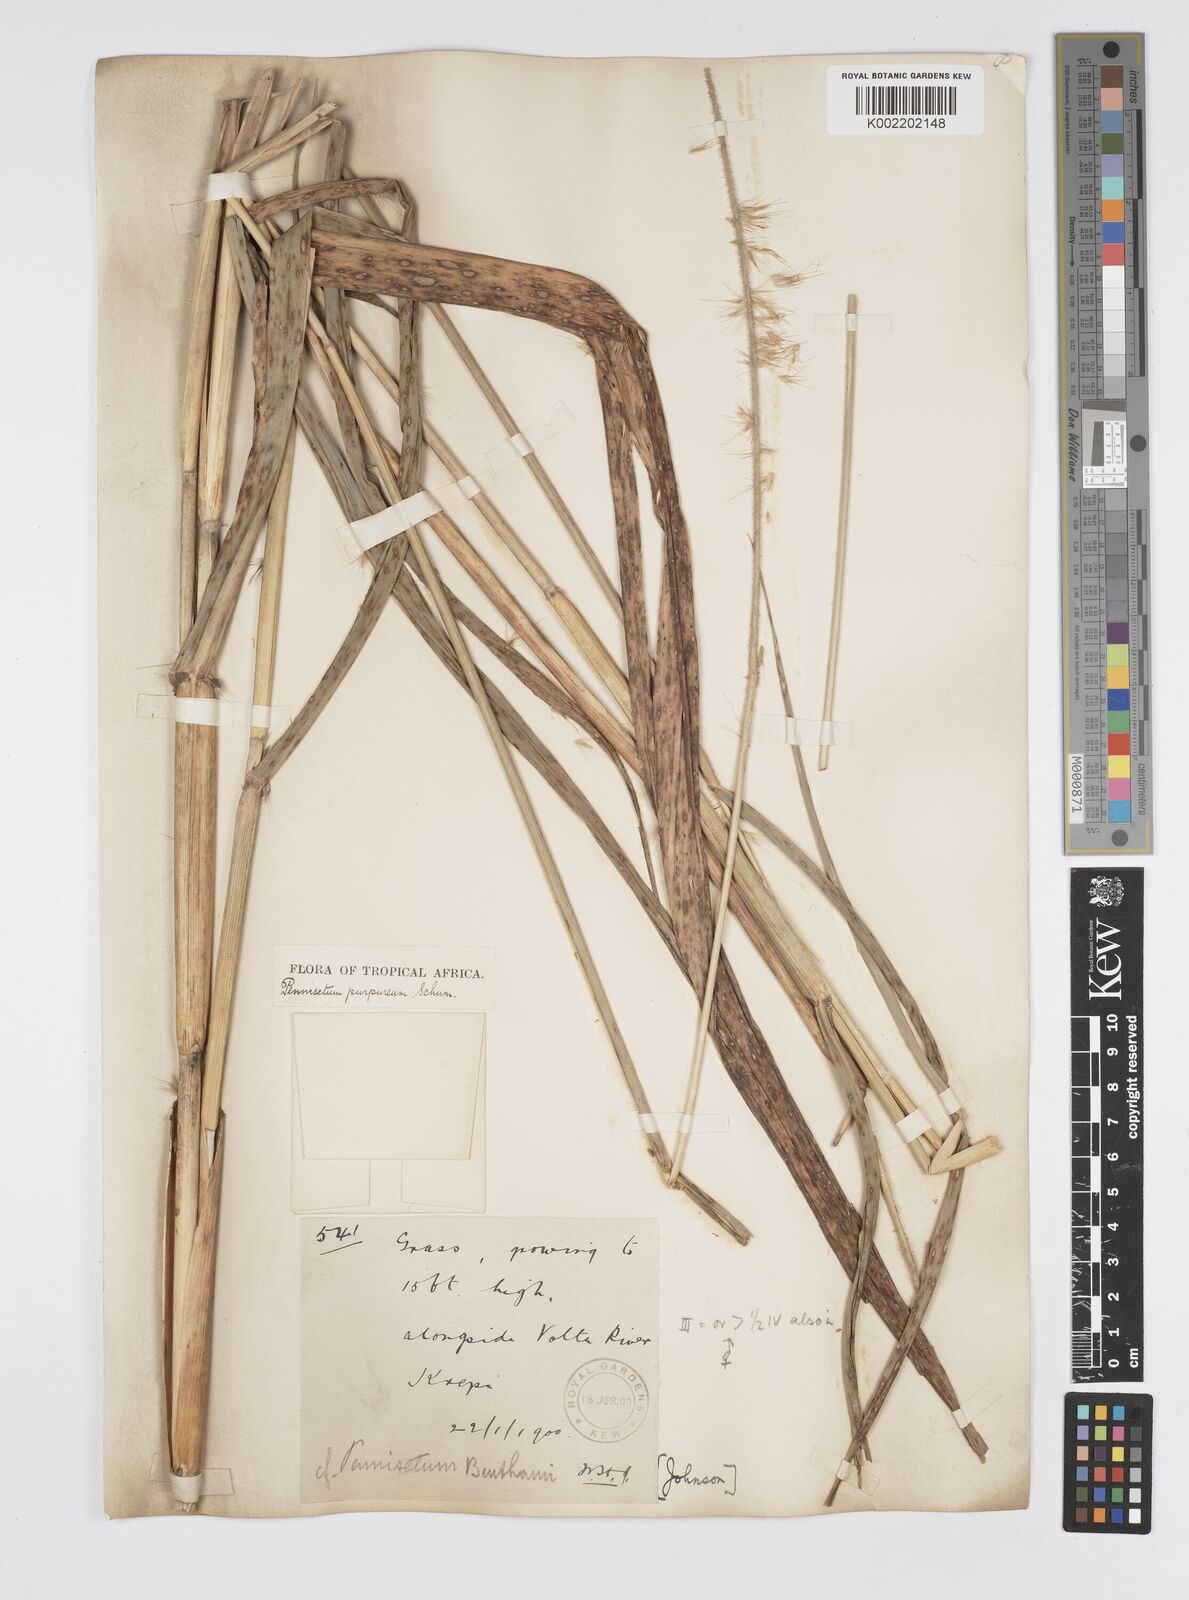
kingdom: Plantae
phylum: Tracheophyta
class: Liliopsida
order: Poales
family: Poaceae
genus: Cenchrus
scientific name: Cenchrus purpureus
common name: Elephant grass
